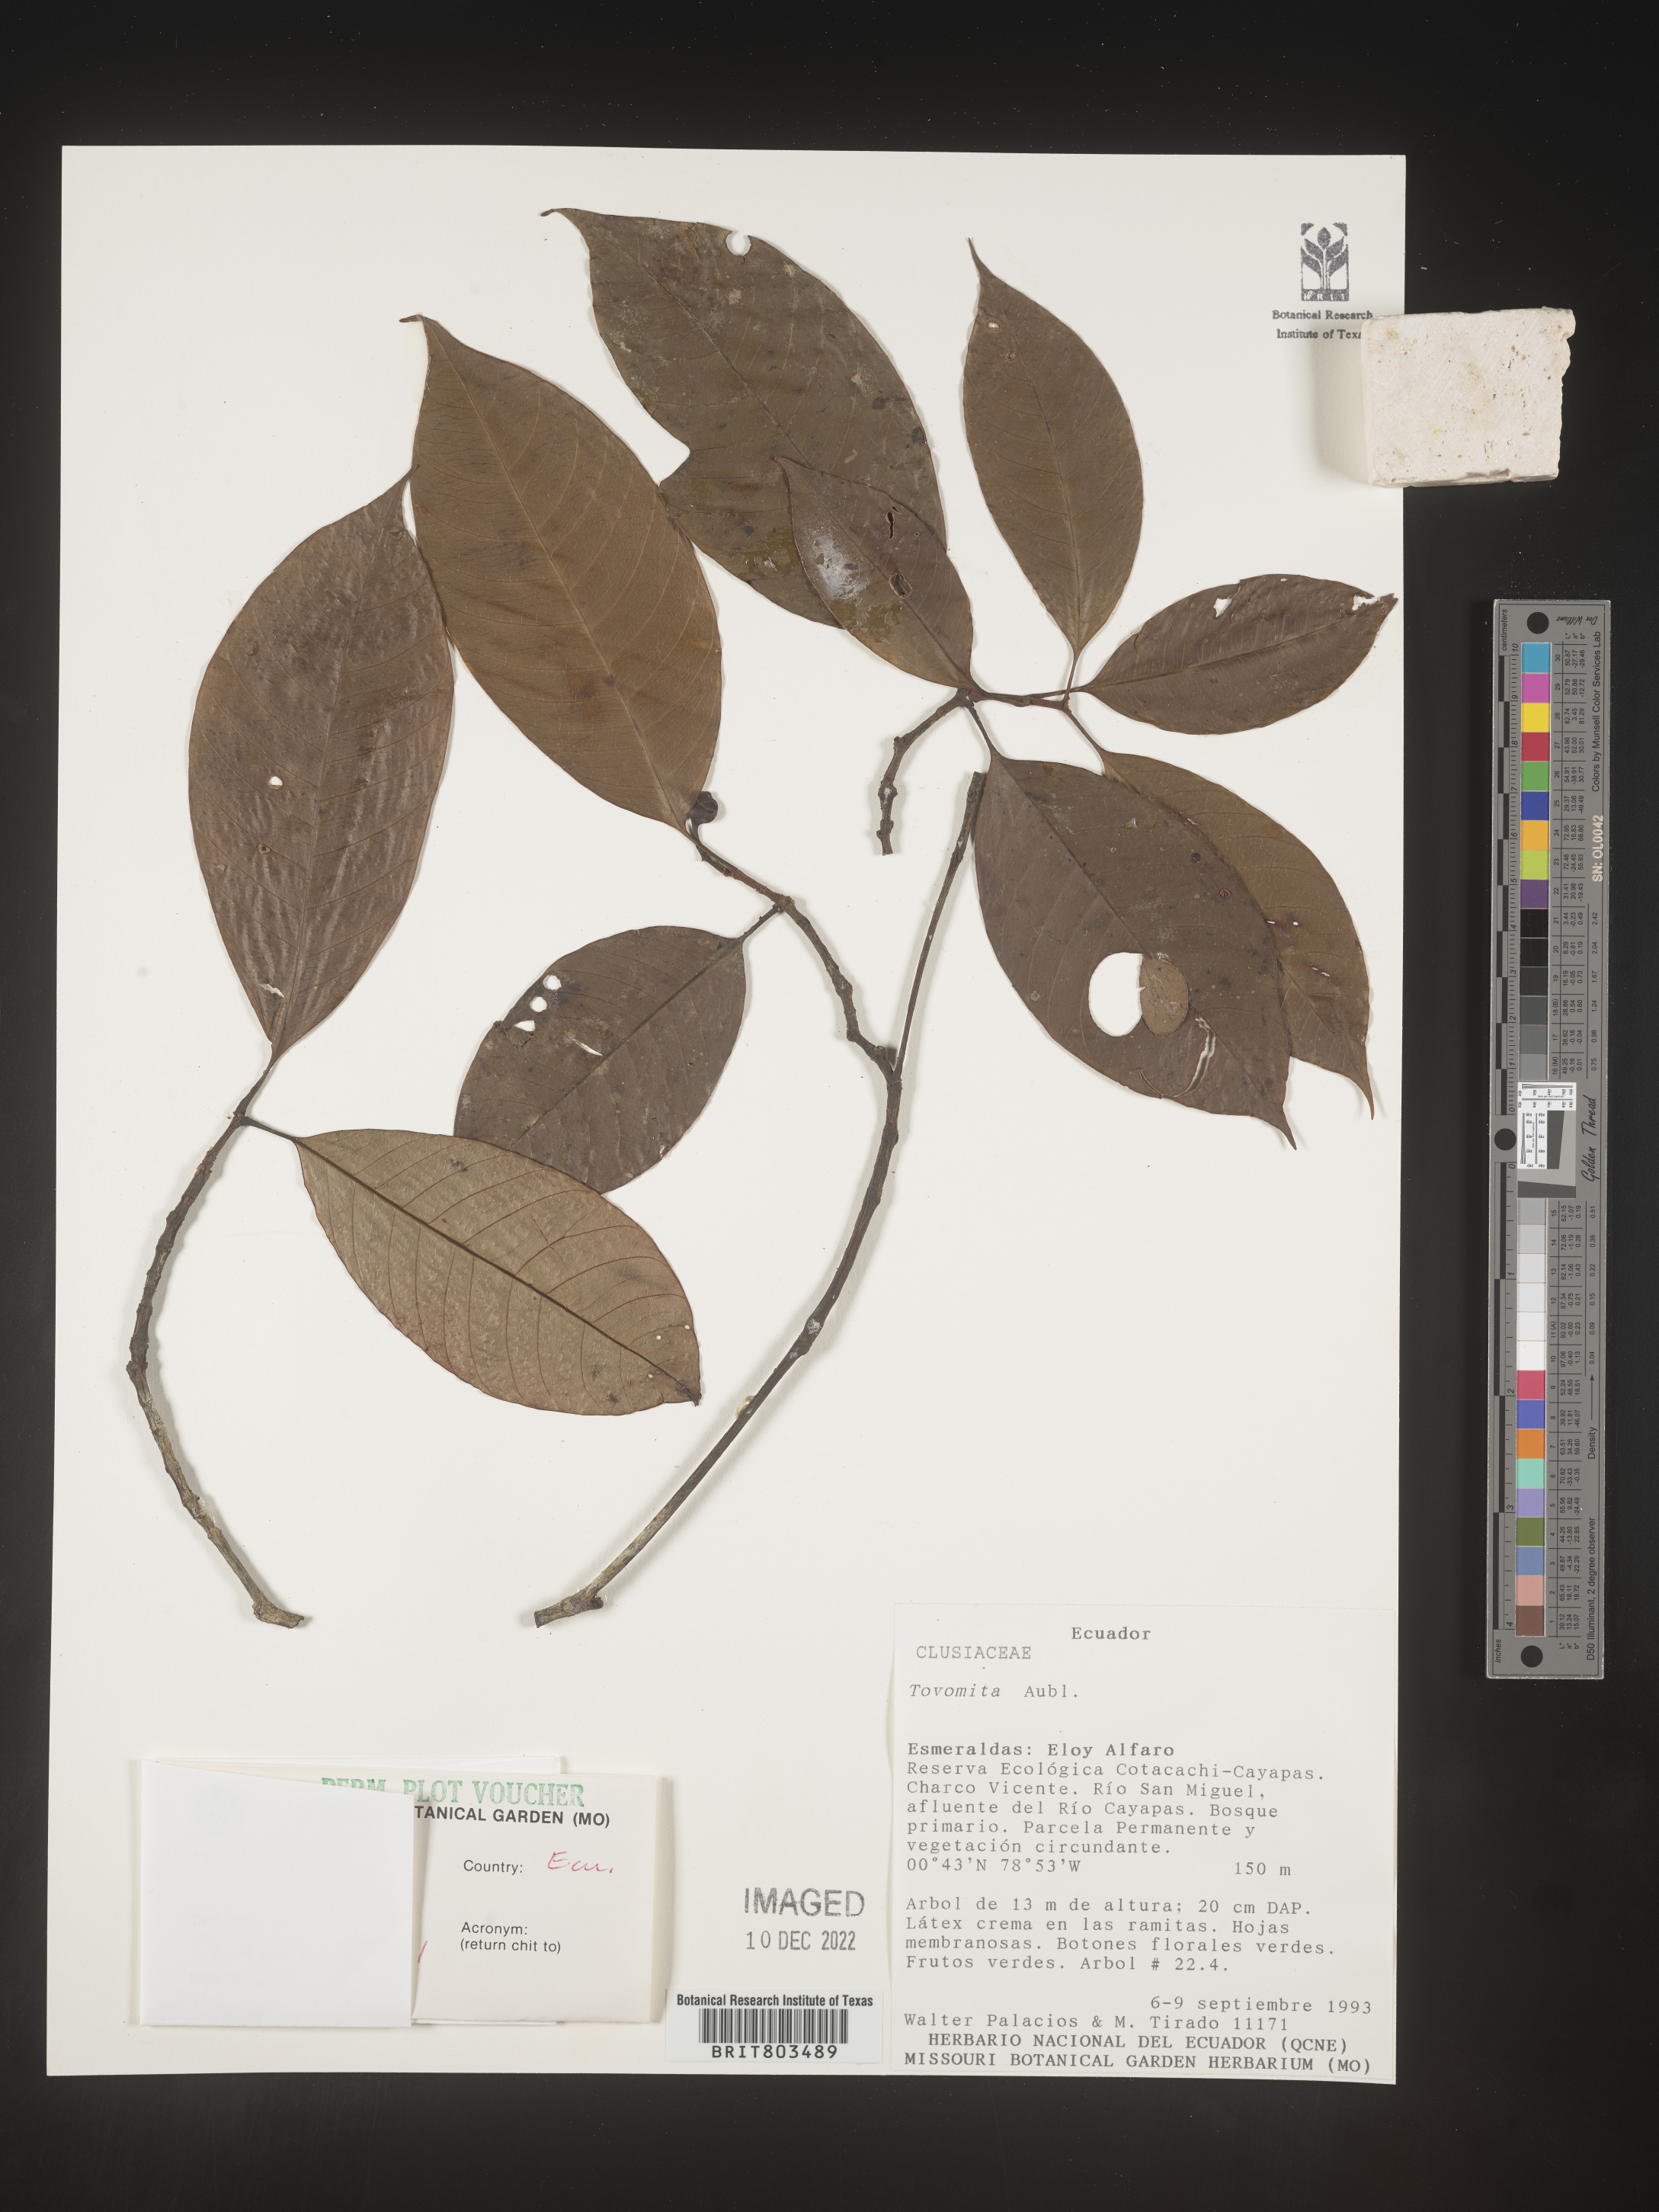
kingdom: Plantae
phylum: Tracheophyta
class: Magnoliopsida
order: Malpighiales
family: Clusiaceae
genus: Tovomita
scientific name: Tovomita
